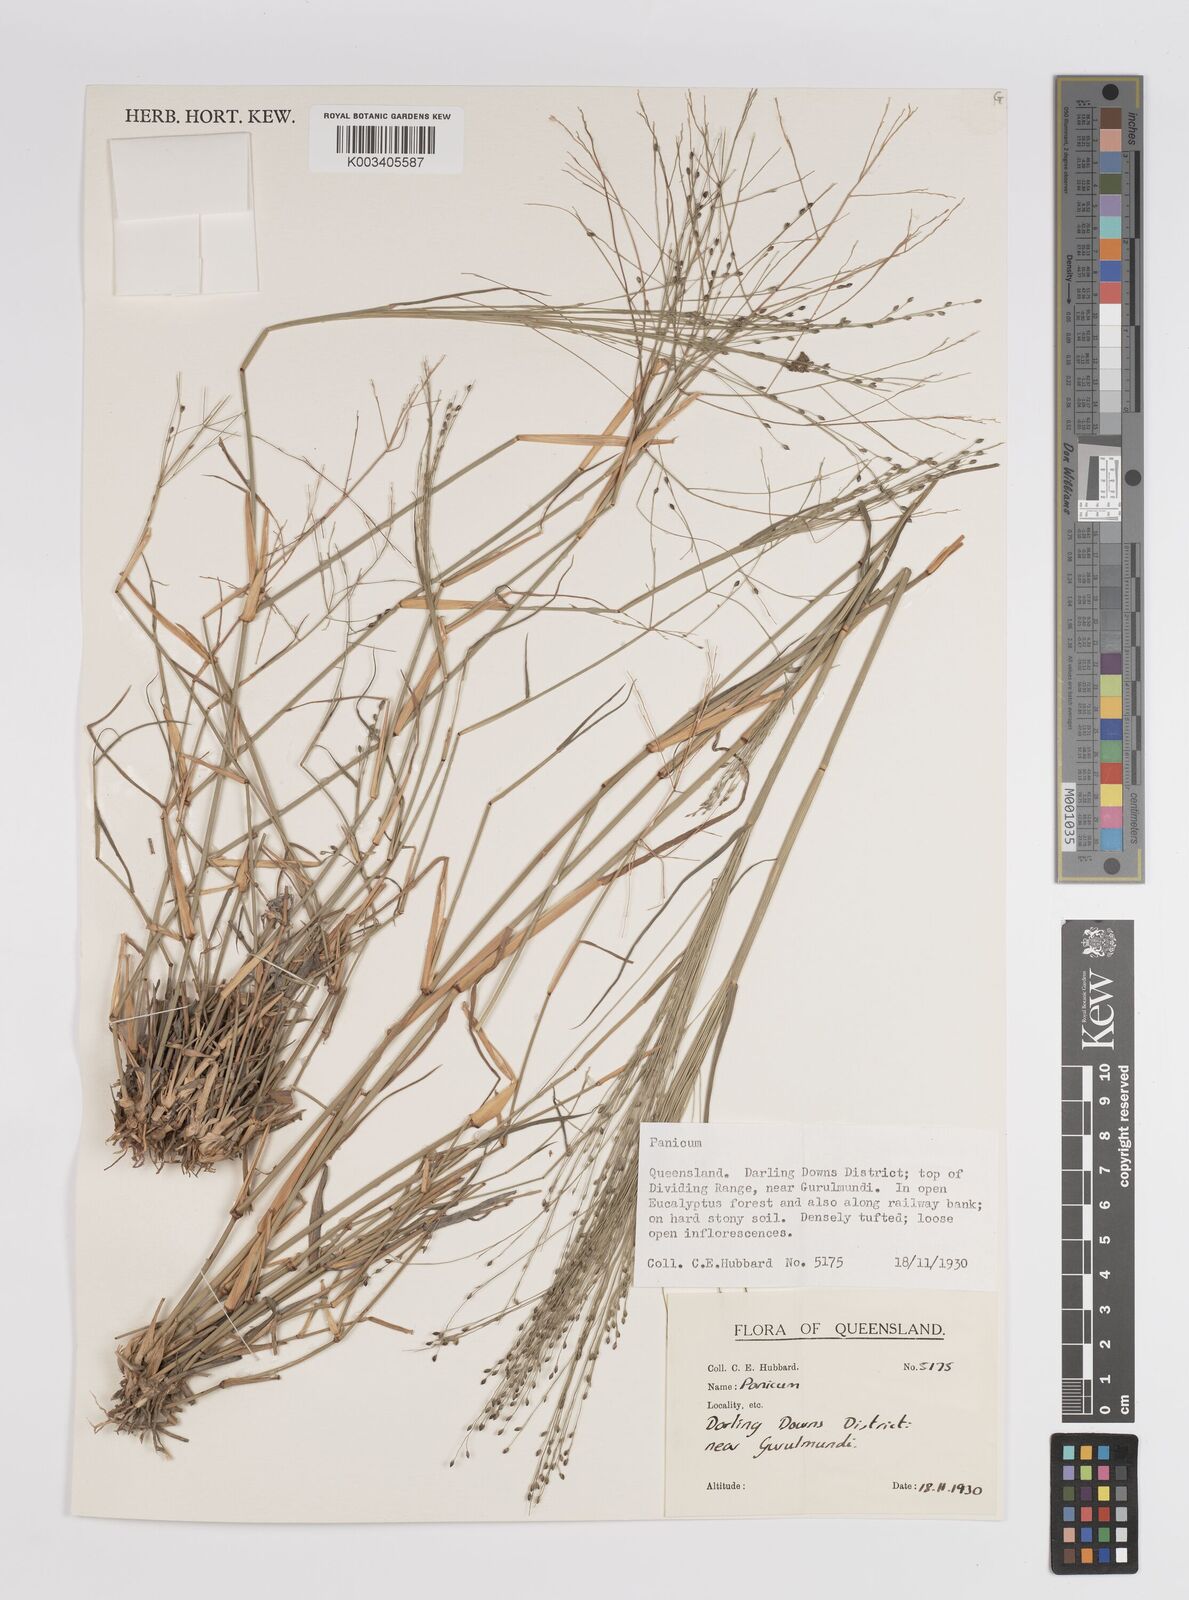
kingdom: Plantae
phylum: Tracheophyta
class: Liliopsida
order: Poales
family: Poaceae
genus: Panicum
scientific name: Panicum
